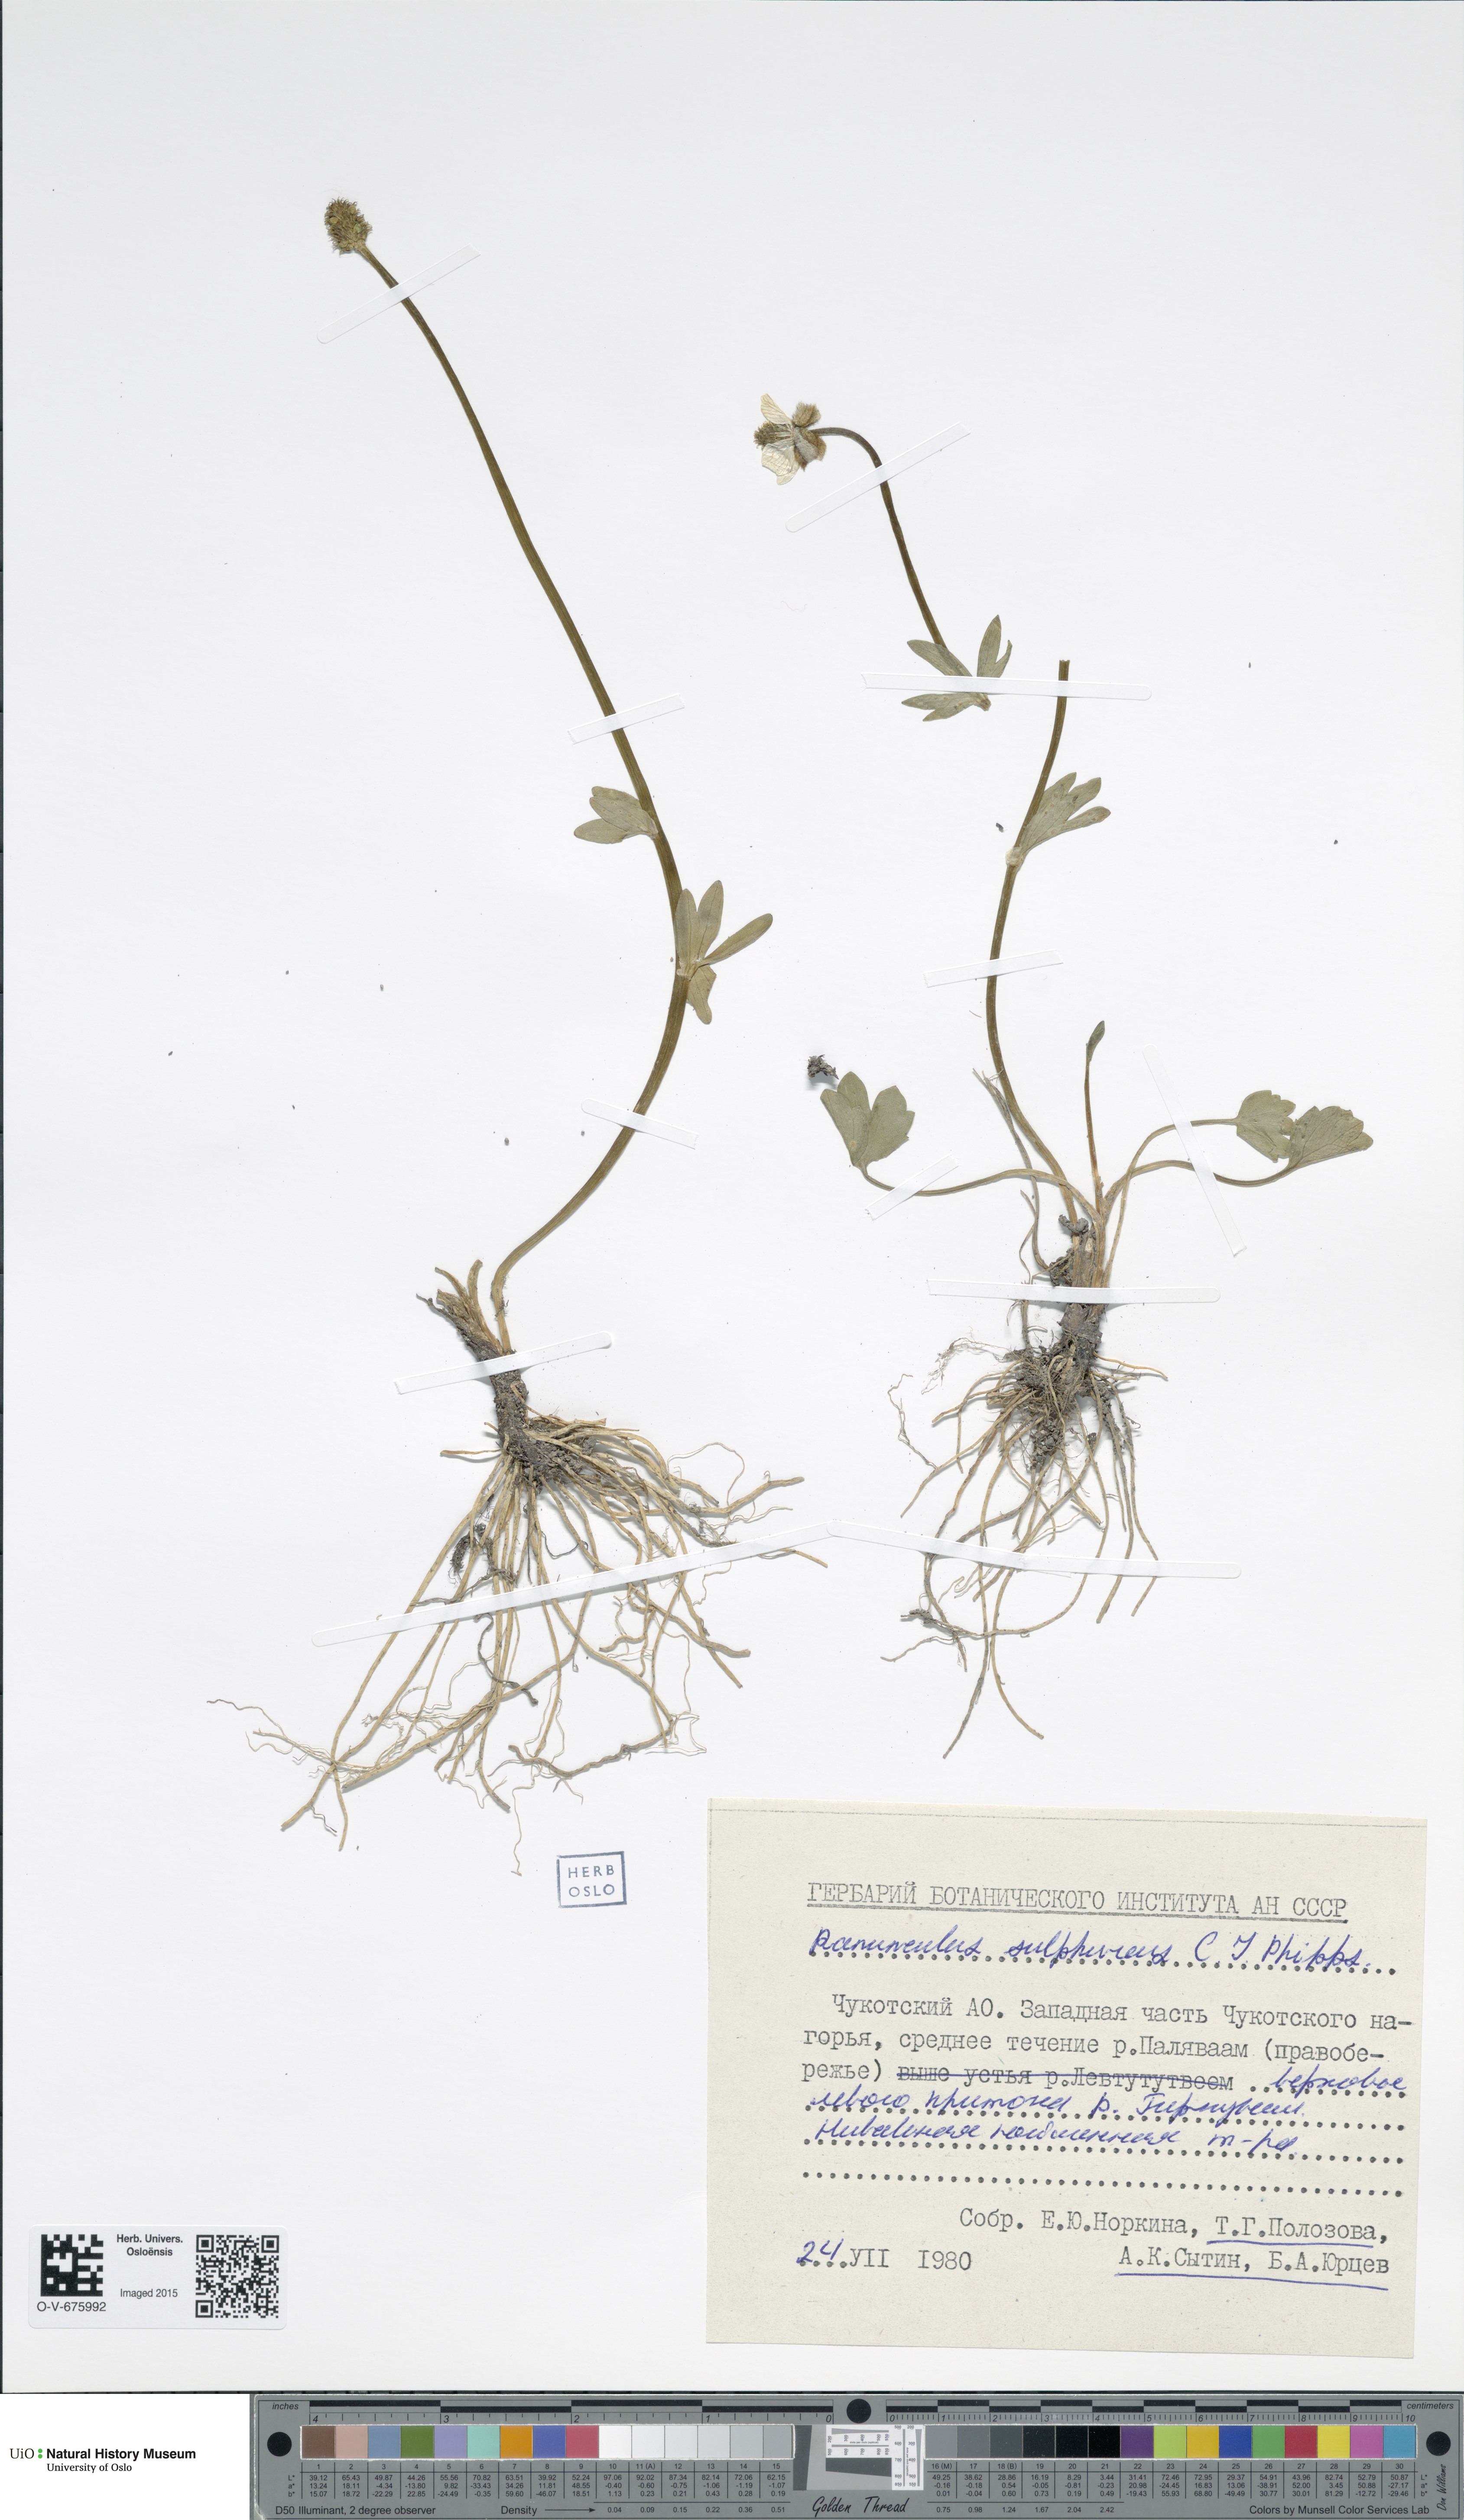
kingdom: Plantae
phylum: Tracheophyta
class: Magnoliopsida
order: Ranunculales
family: Ranunculaceae
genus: Ranunculus
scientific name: Ranunculus sulphureus
